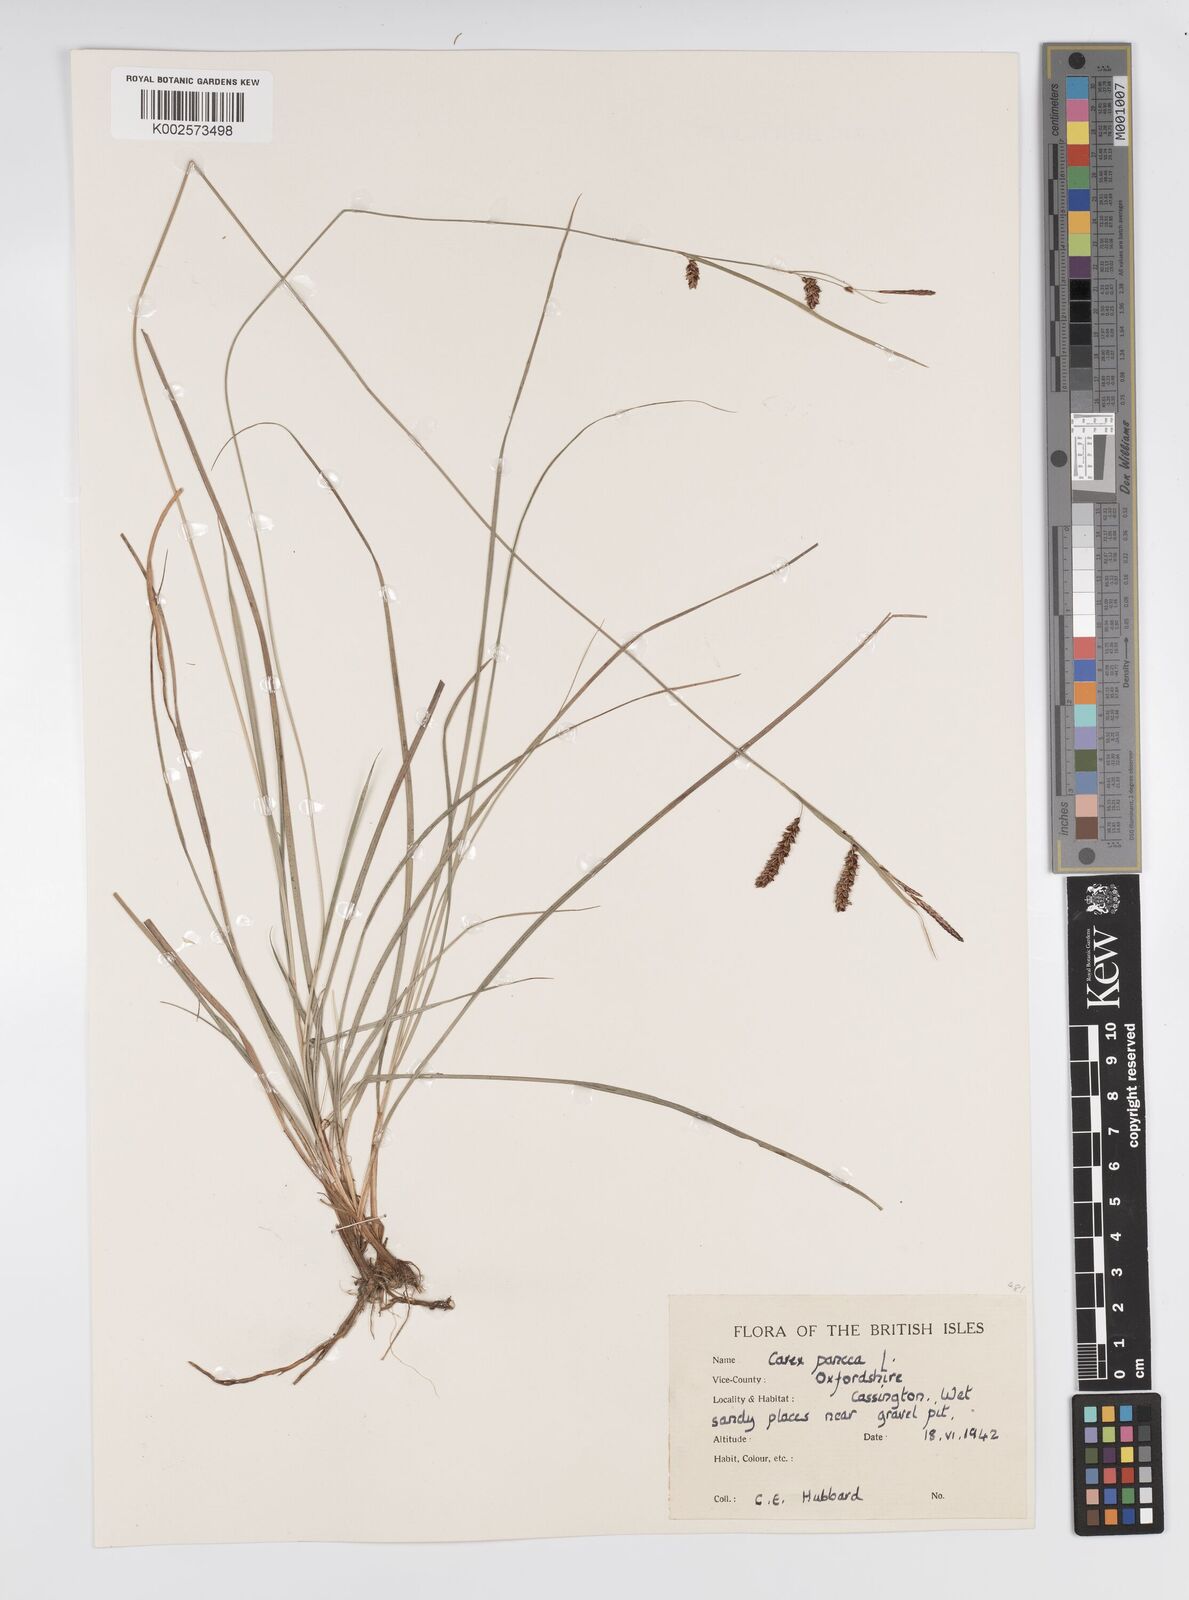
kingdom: Plantae
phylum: Tracheophyta
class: Liliopsida
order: Poales
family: Cyperaceae
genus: Carex
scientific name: Carex panicea
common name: Carnation sedge
